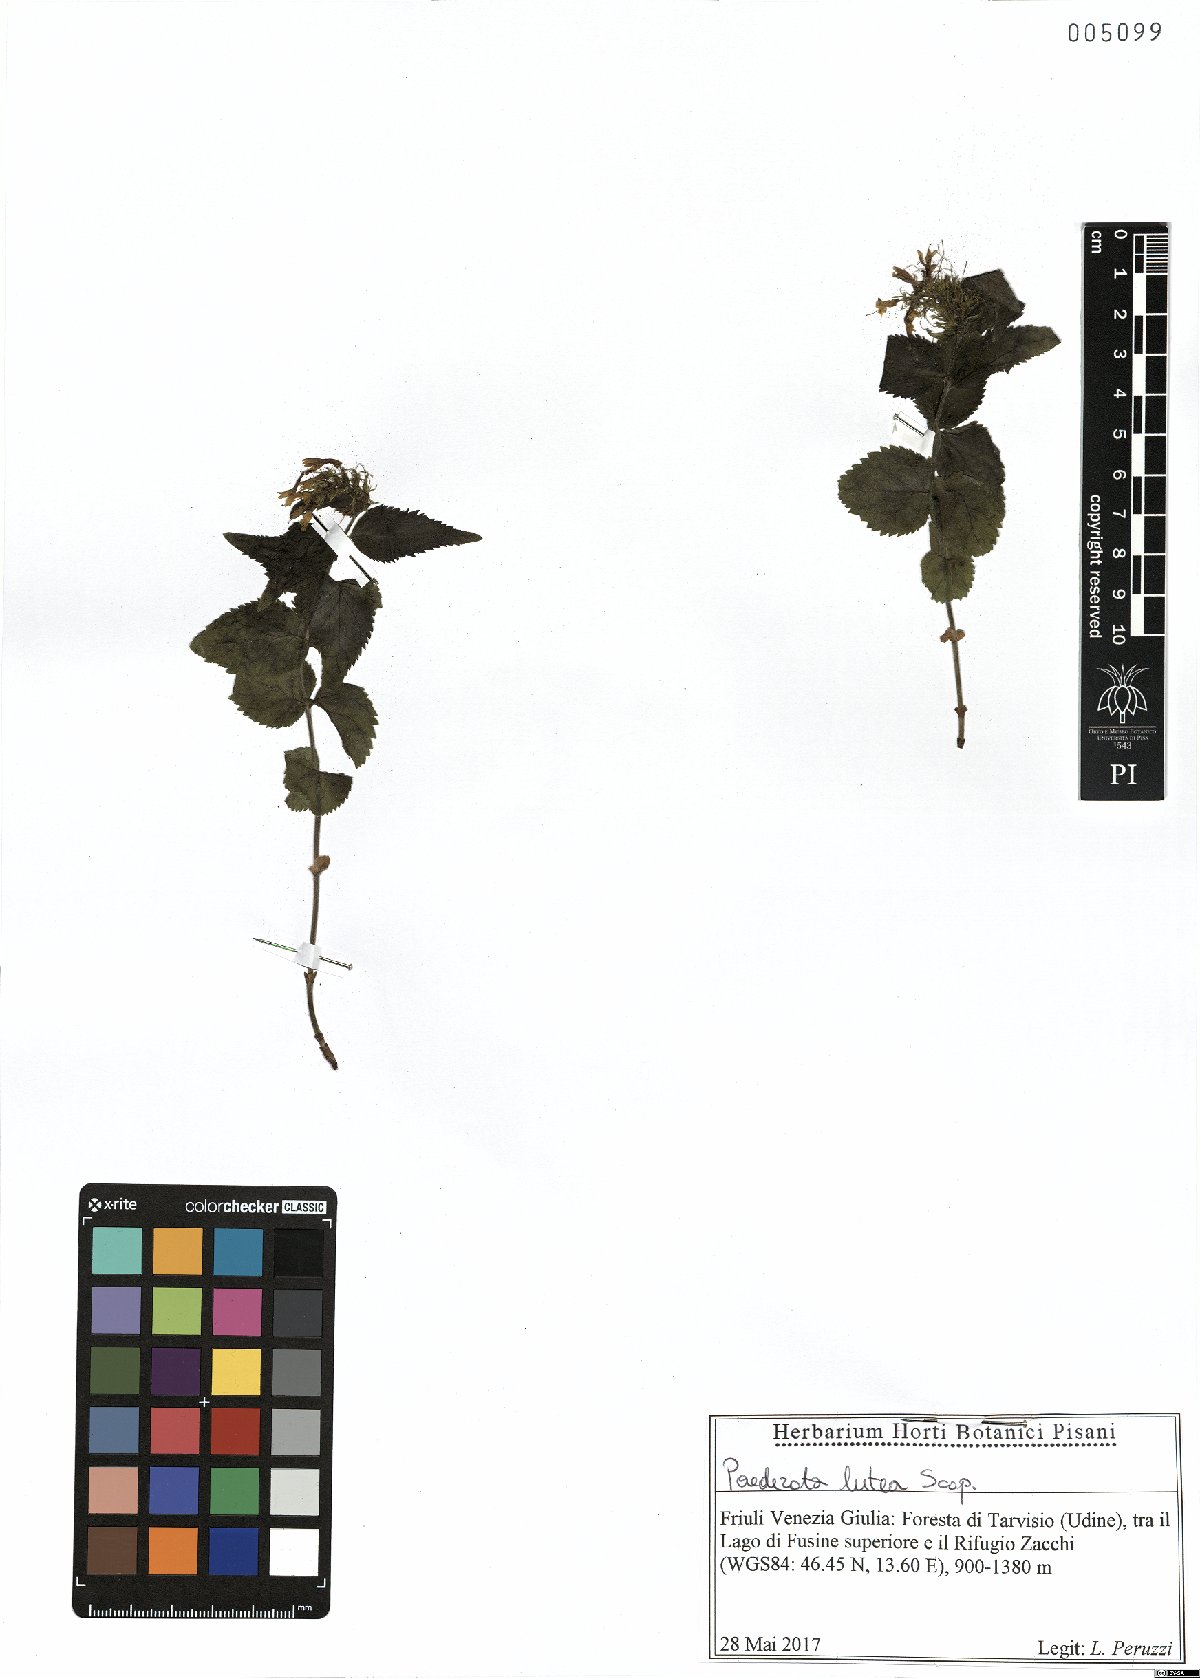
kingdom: Plantae
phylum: Tracheophyta
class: Magnoliopsida
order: Lamiales
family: Plantaginaceae
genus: Paederota
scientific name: Paederota lutea
